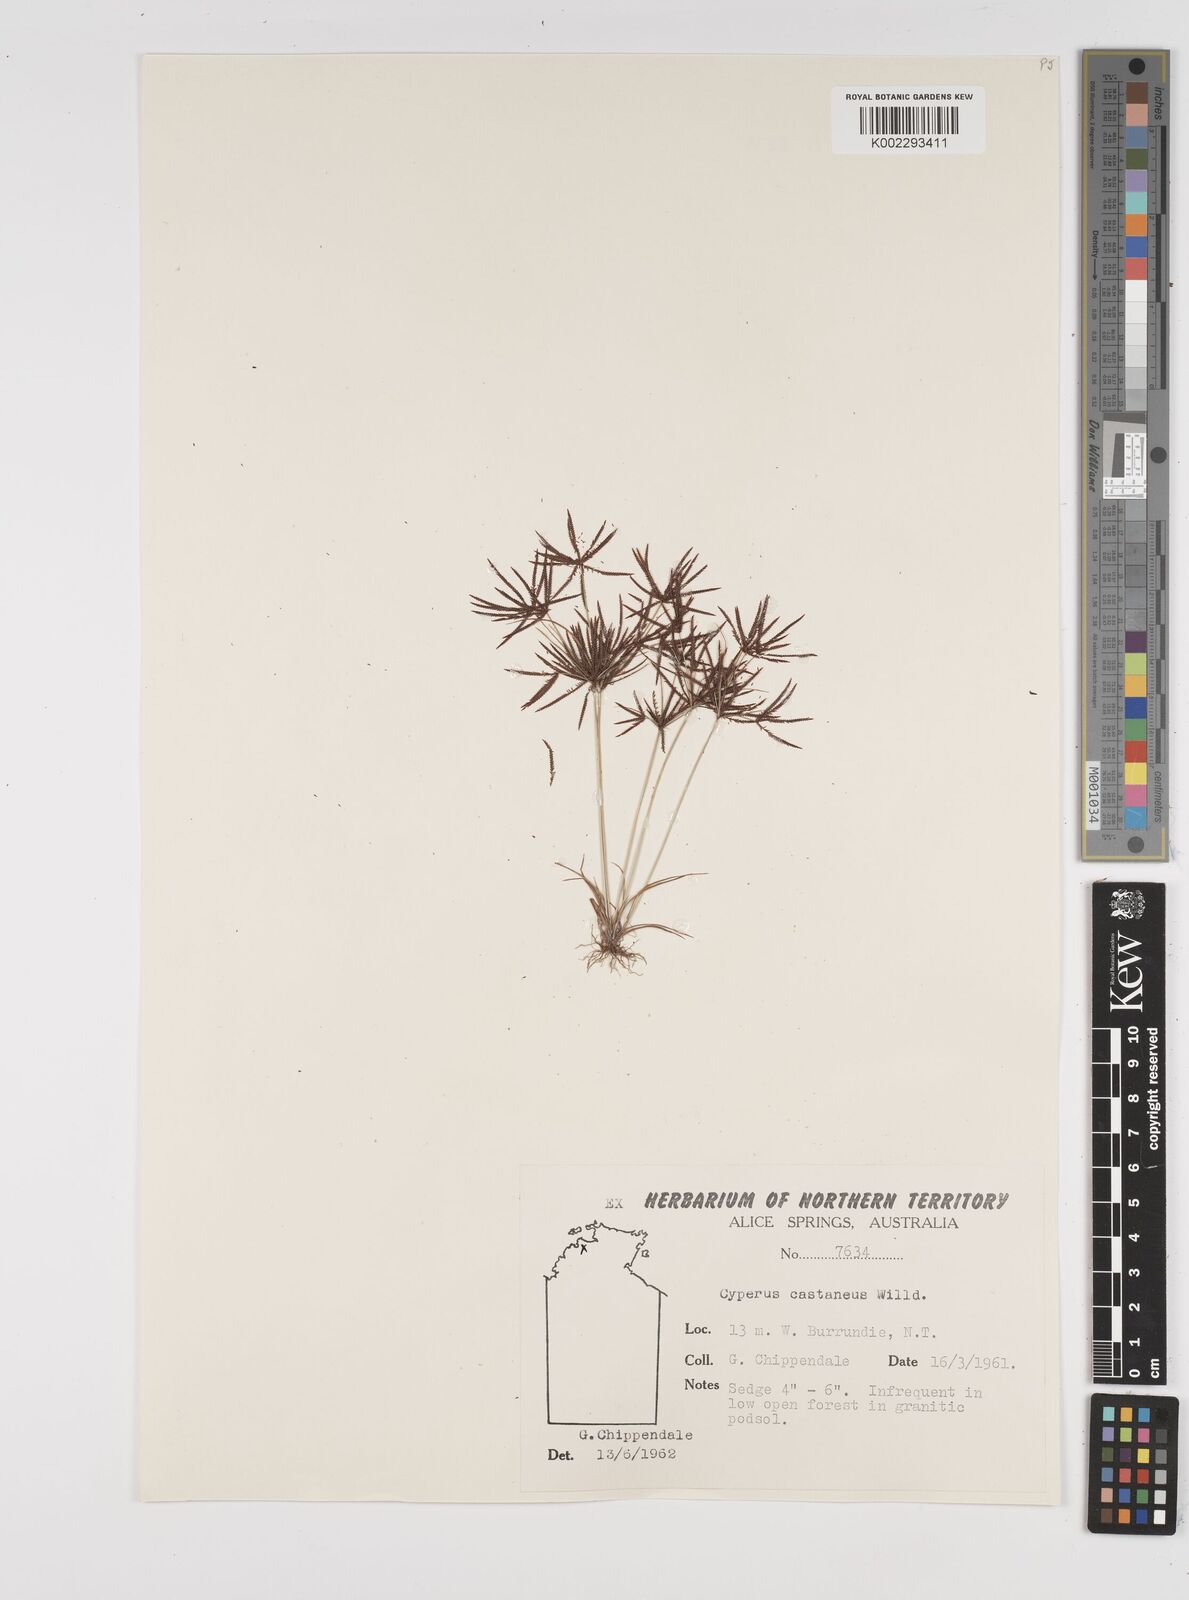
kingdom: Plantae
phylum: Tracheophyta
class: Liliopsida
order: Poales
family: Cyperaceae
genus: Cyperus
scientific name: Cyperus castaneus
